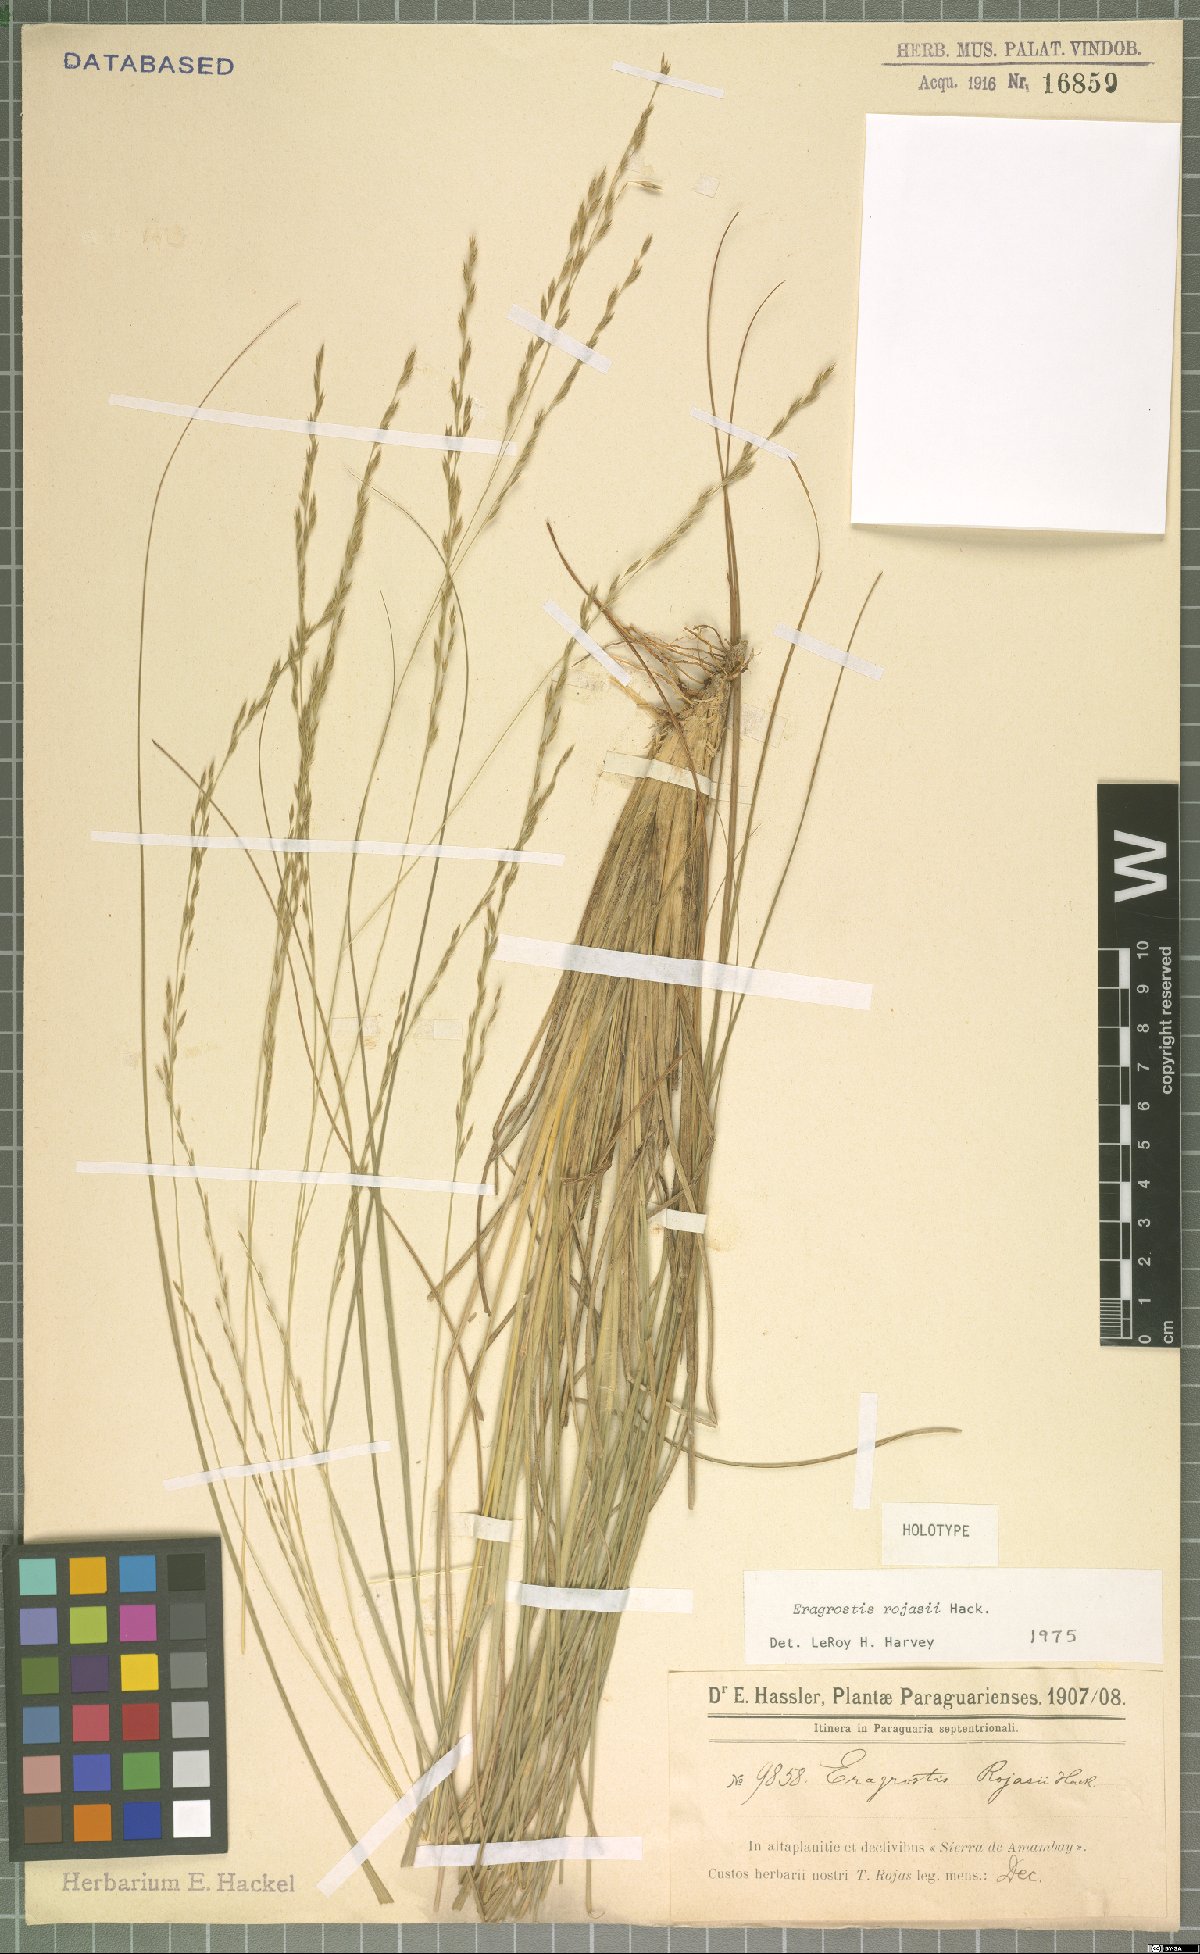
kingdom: Plantae
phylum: Tracheophyta
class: Liliopsida
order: Poales
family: Poaceae
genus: Eragrostis
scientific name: Eragrostis rojasii
